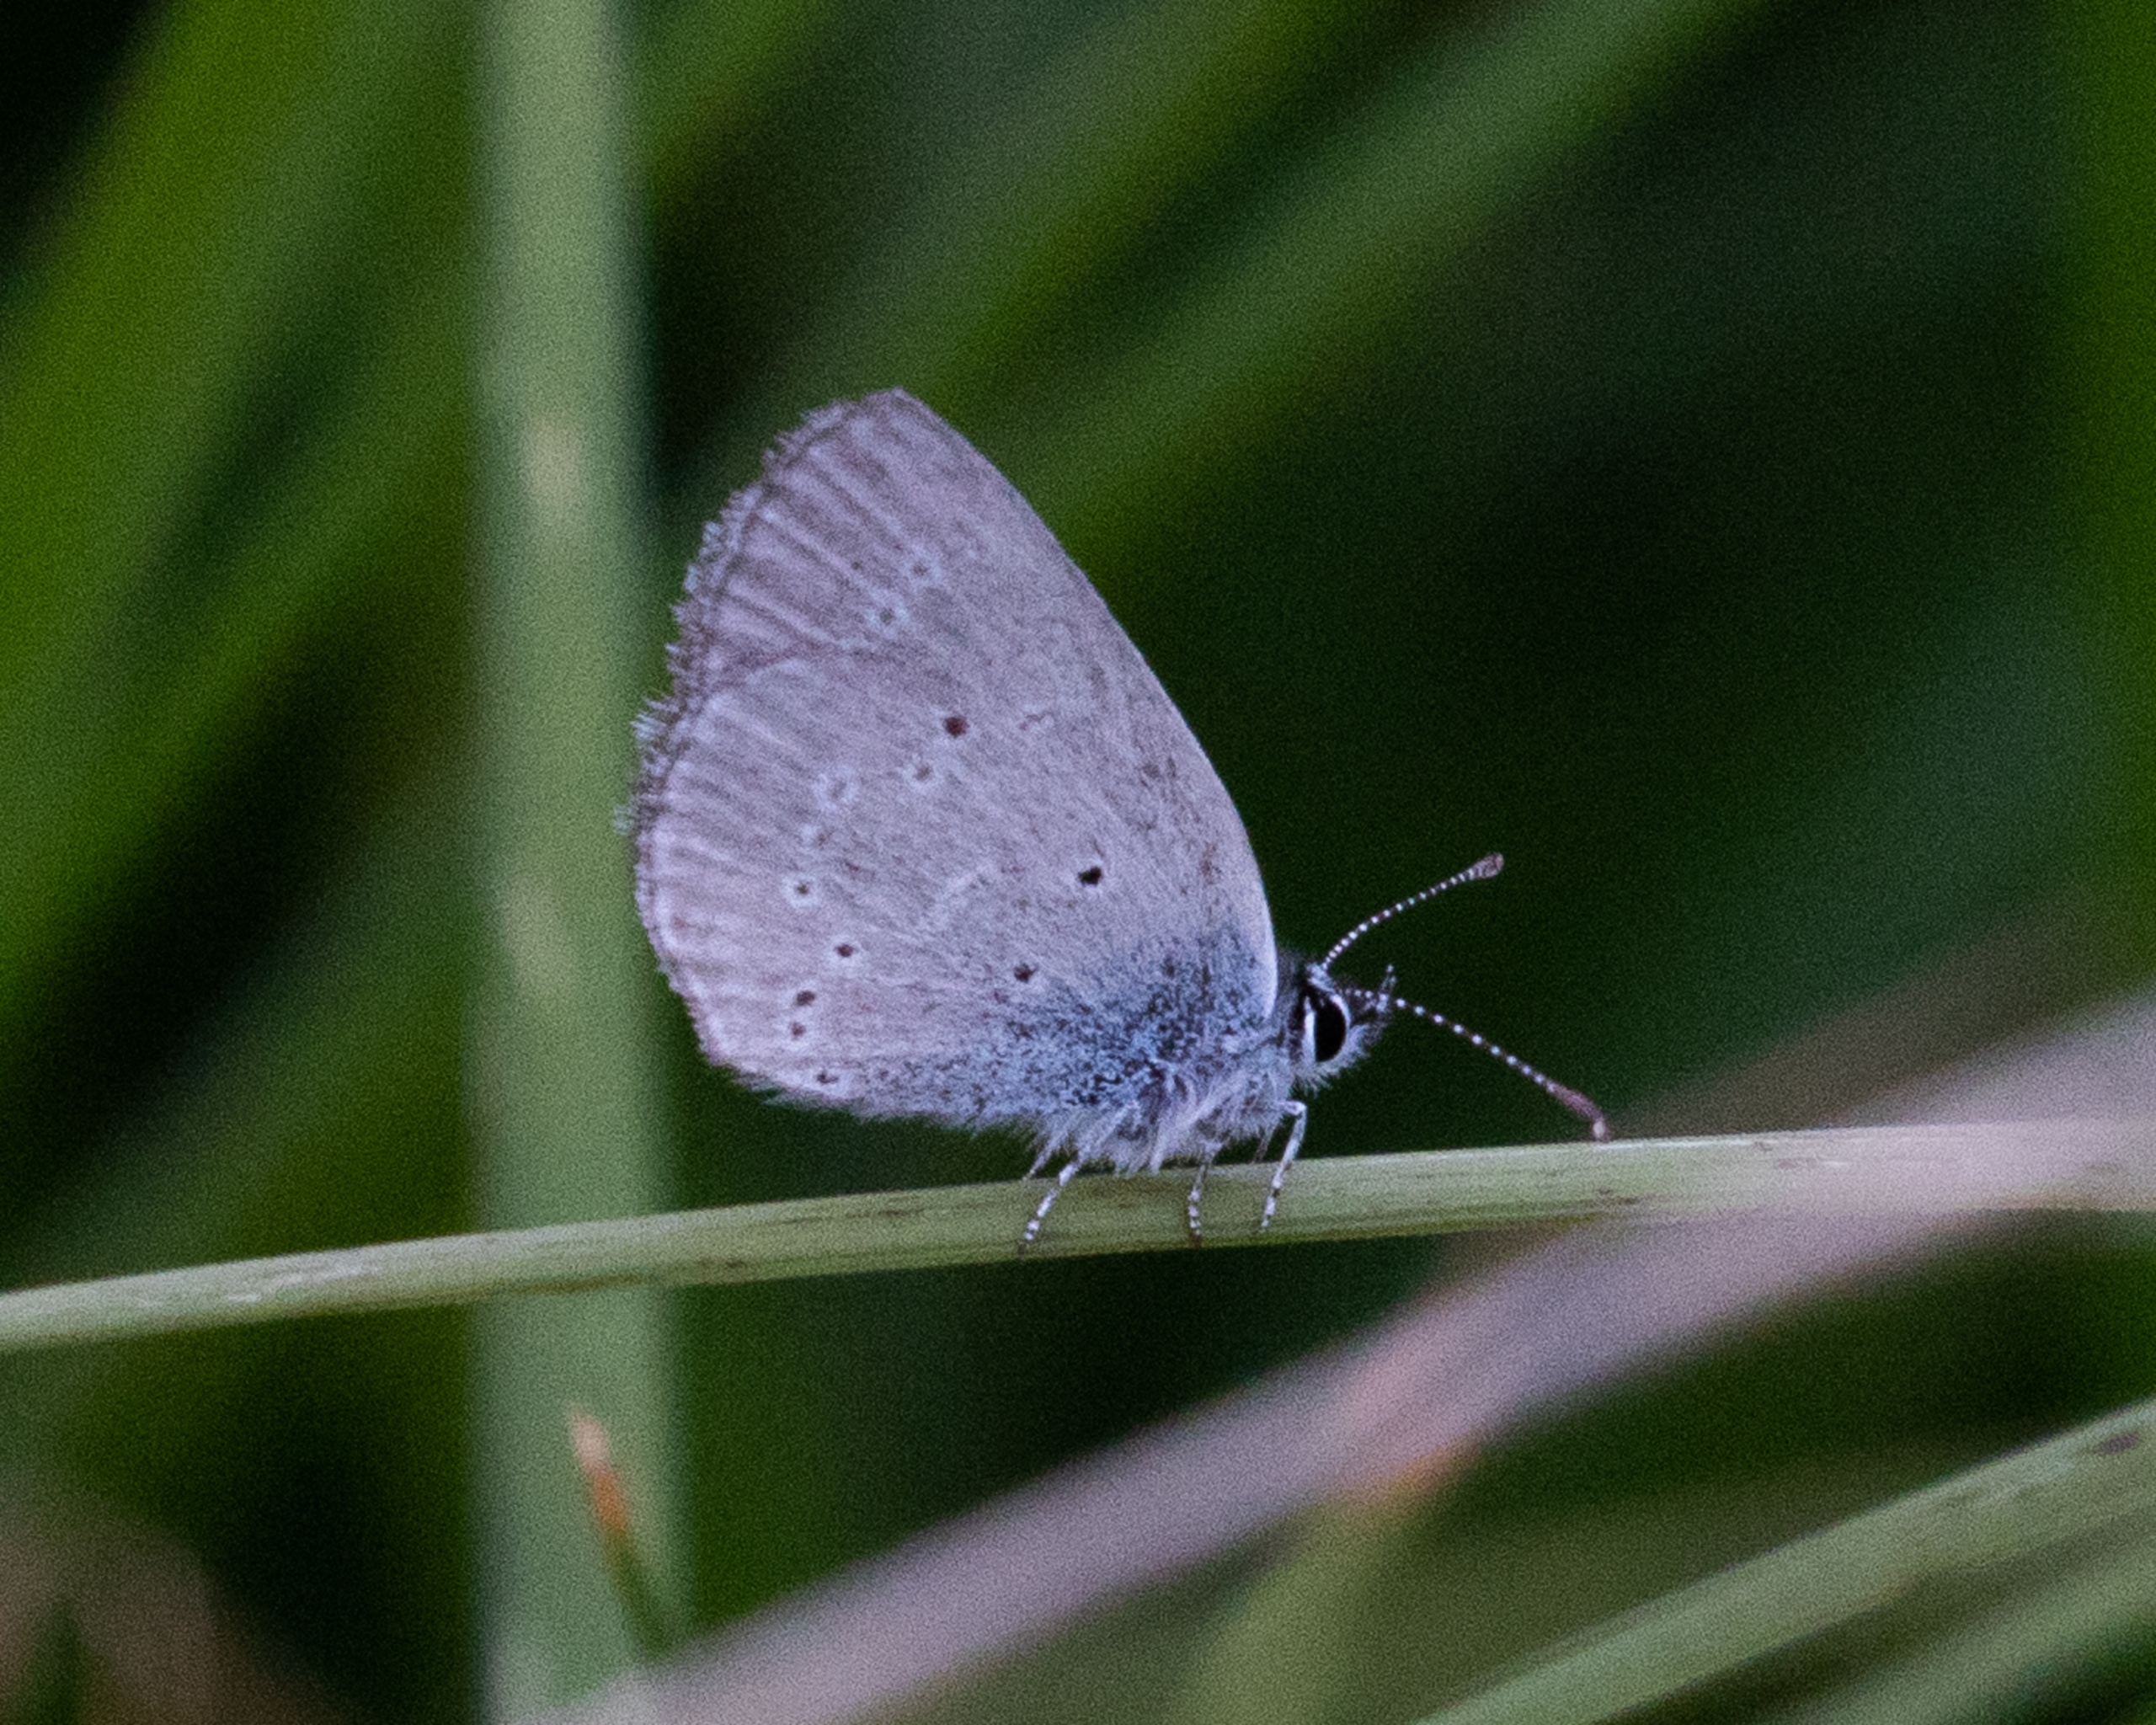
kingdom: Animalia
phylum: Arthropoda
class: Insecta
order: Lepidoptera
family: Lycaenidae
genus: Cupido
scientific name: Cupido minimus
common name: Dværgblåfugl
